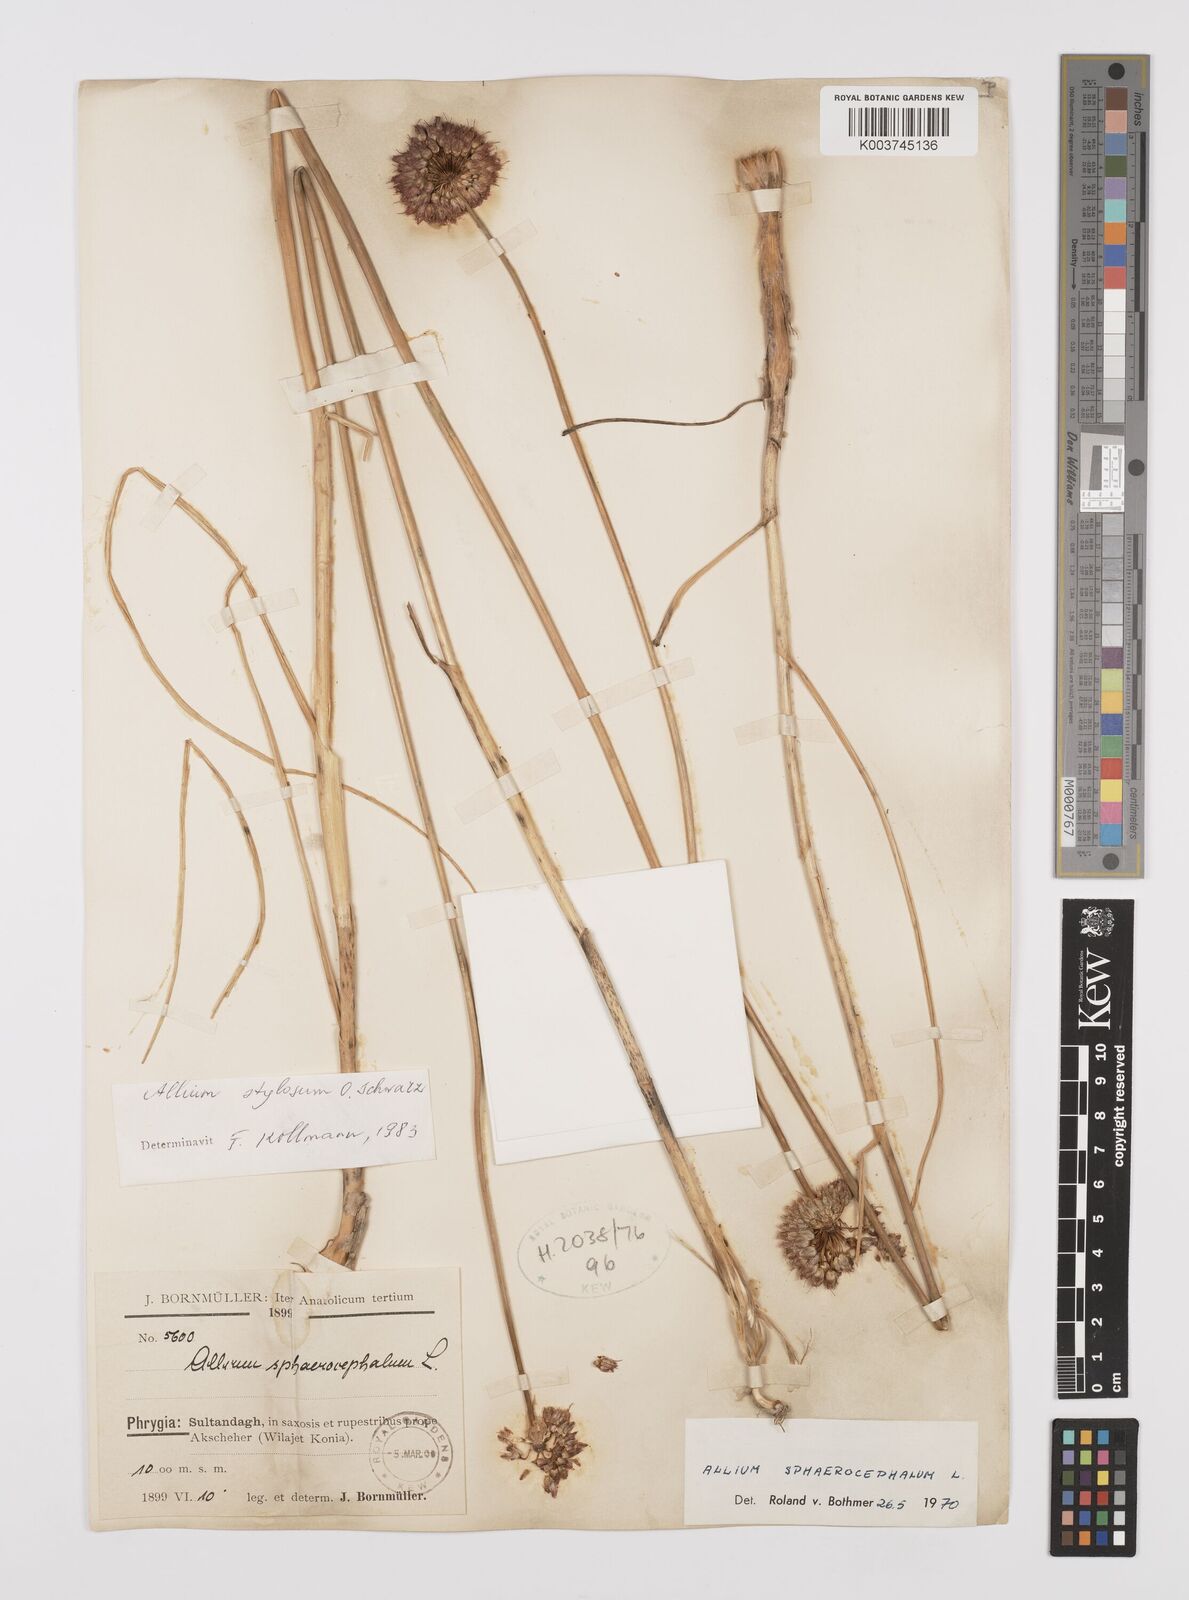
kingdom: Plantae
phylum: Tracheophyta
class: Liliopsida
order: Asparagales
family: Amaryllidaceae
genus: Allium
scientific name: Allium stylosum
